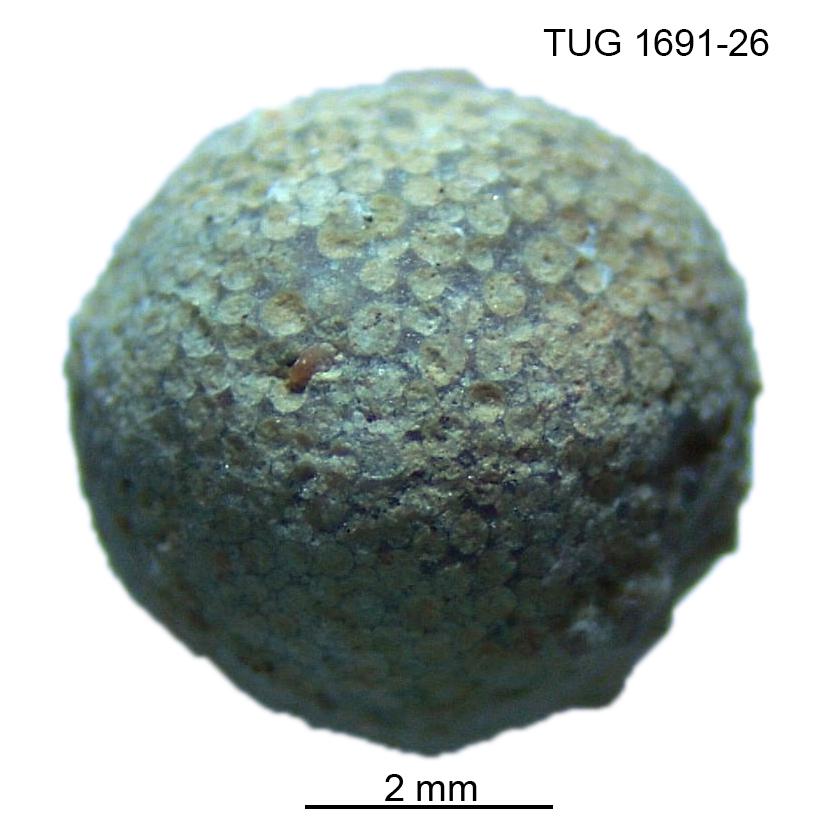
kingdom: Animalia
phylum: Bryozoa
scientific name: Bryozoa
